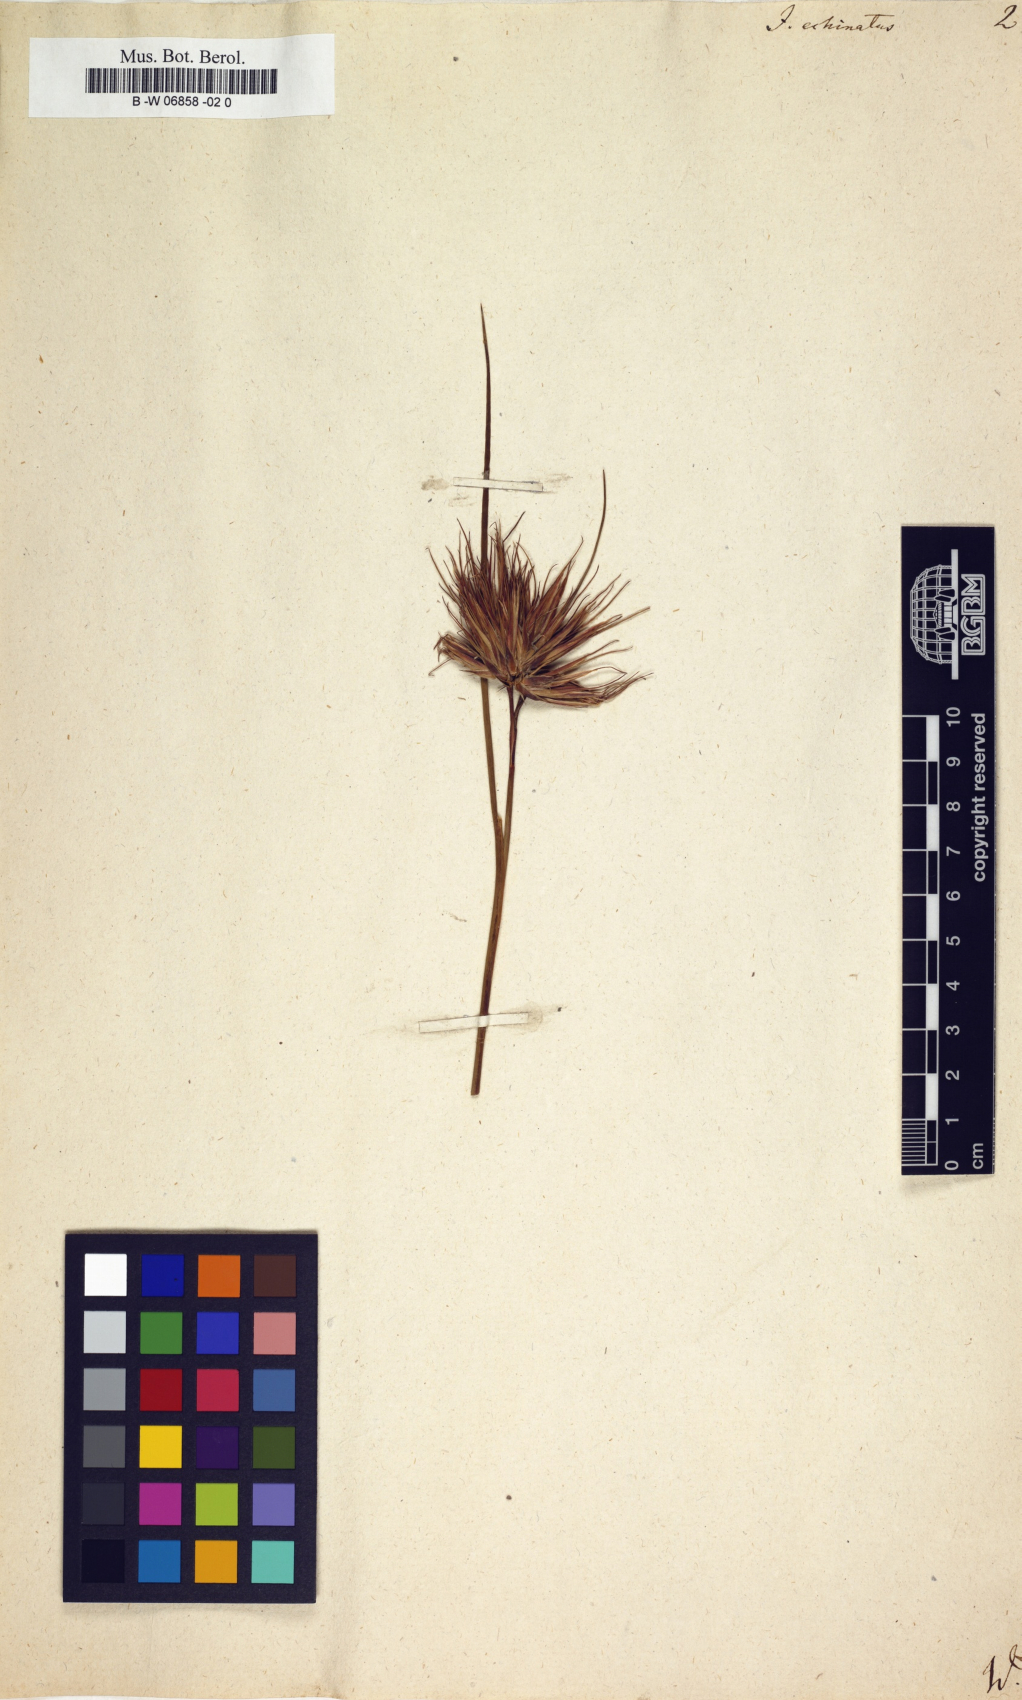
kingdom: Plantae
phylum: Tracheophyta
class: Liliopsida
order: Poales
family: Juncaceae
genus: Juncus
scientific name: Juncus
